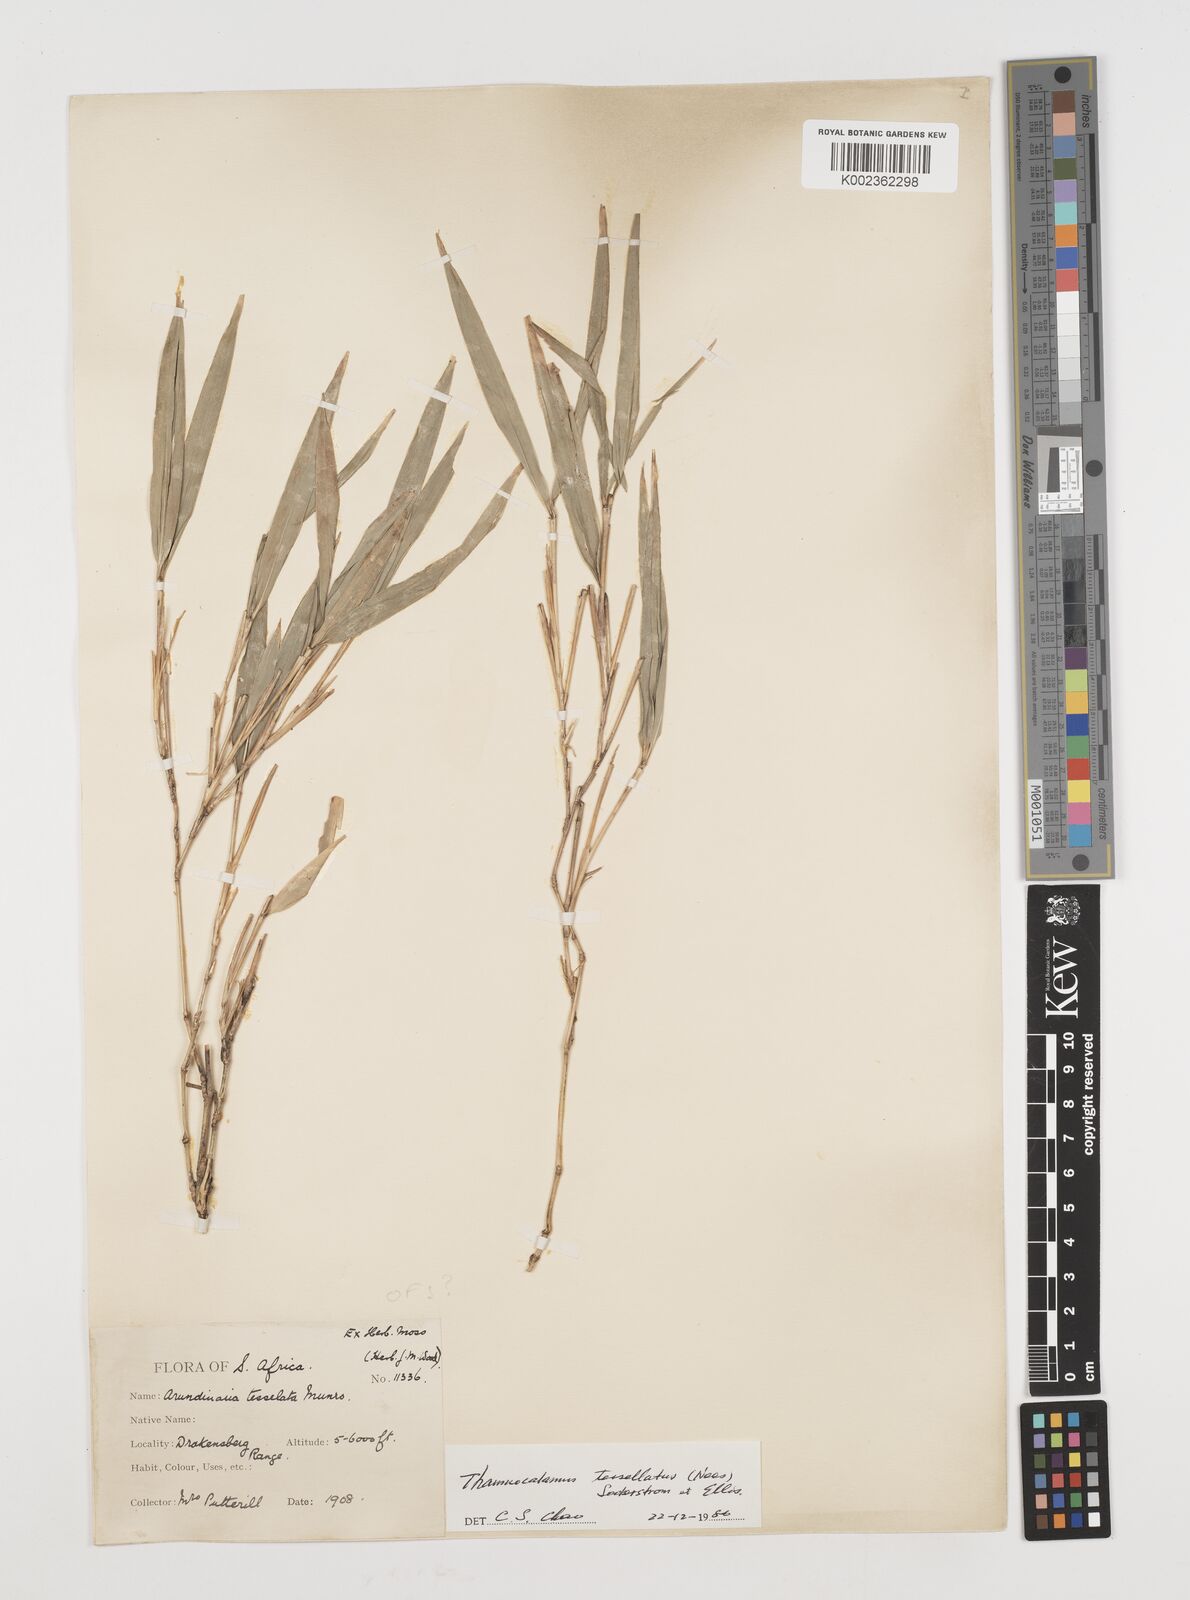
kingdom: Plantae
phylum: Tracheophyta
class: Liliopsida
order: Poales
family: Poaceae
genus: Bergbambos
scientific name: Bergbambos tessellata
